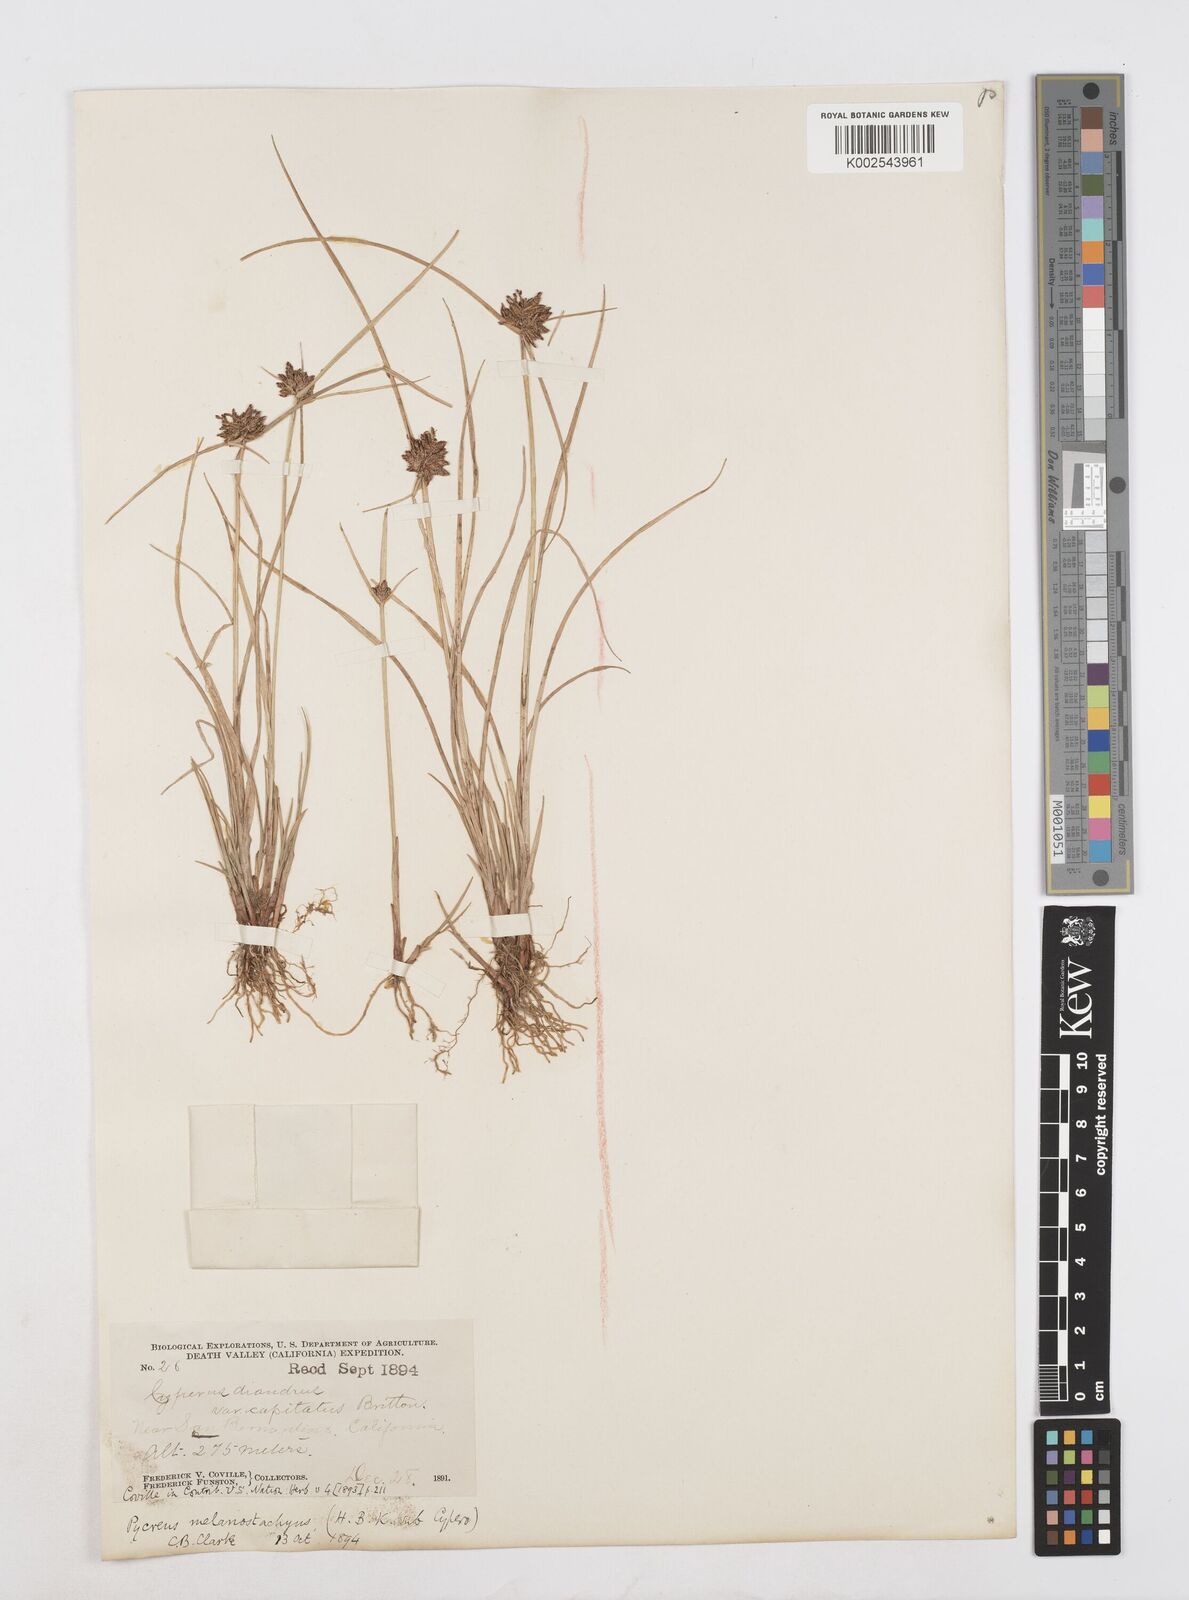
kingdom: Plantae
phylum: Tracheophyta
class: Liliopsida
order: Poales
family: Cyperaceae
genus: Cyperus
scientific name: Cyperus melanostachyus
